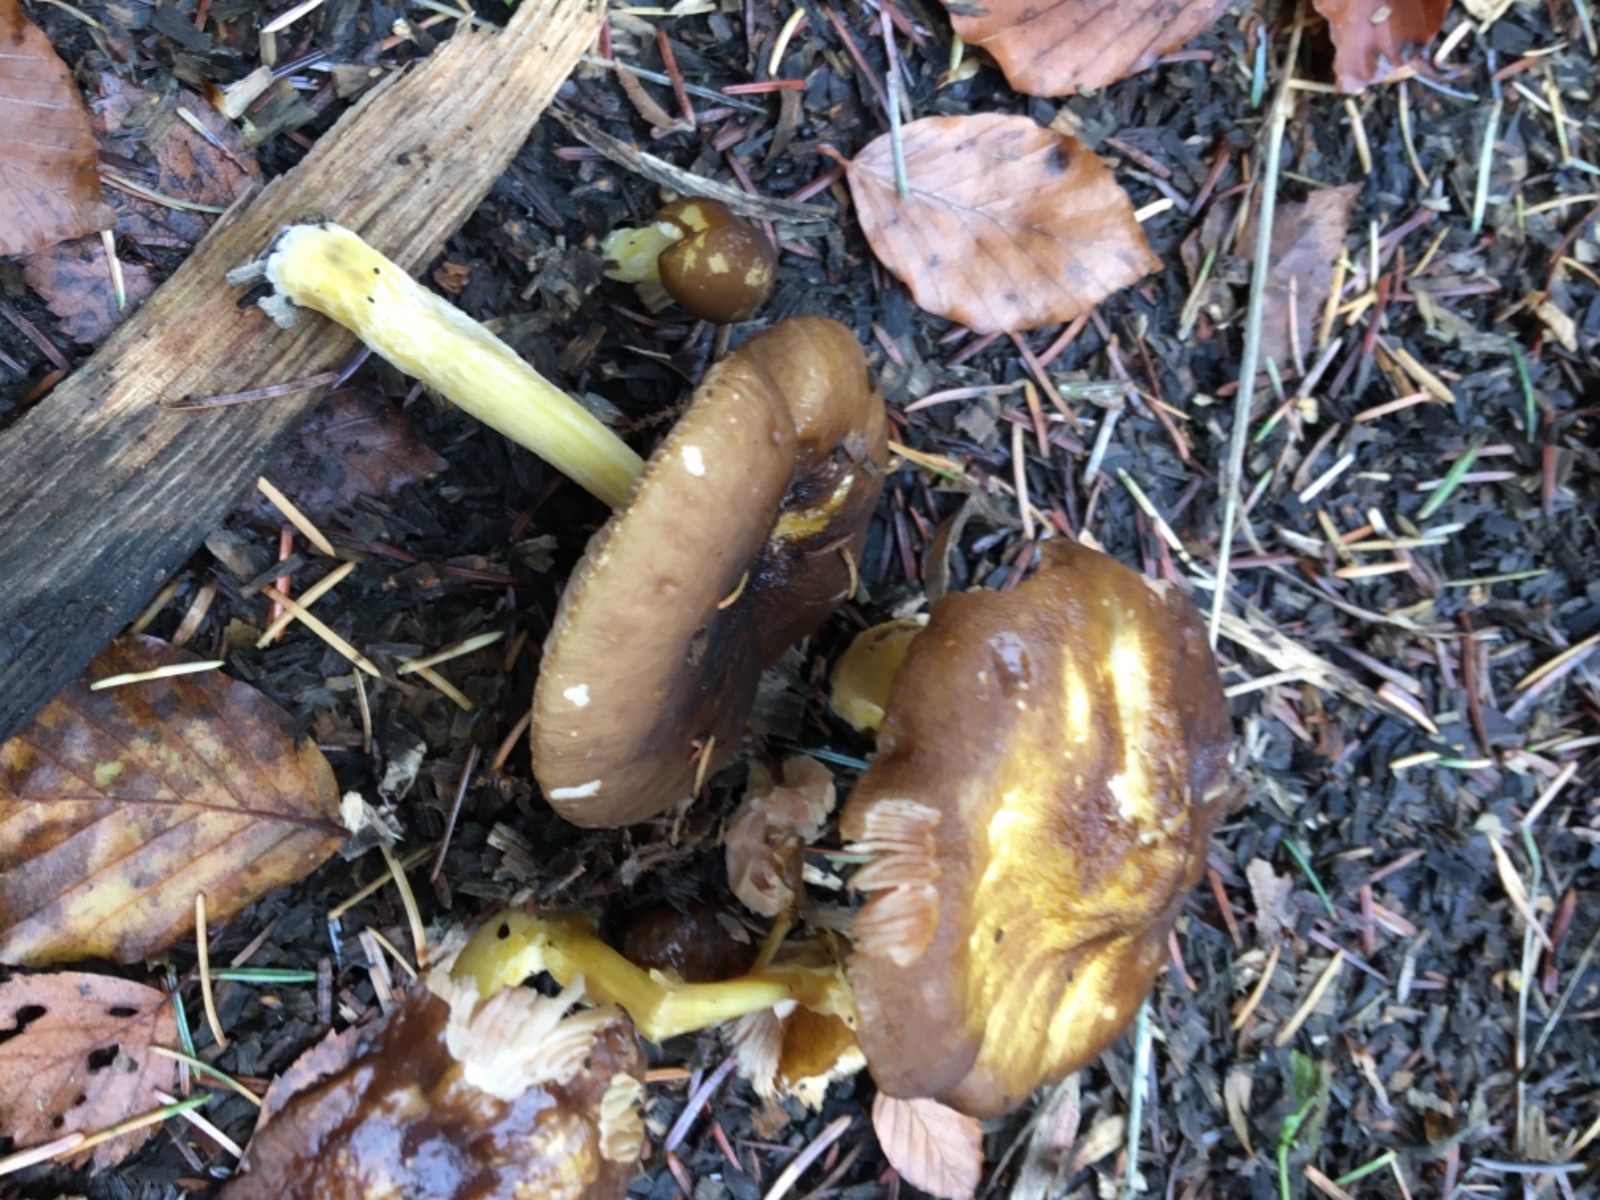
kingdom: Fungi
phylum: Basidiomycota
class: Agaricomycetes
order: Agaricales
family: Pluteaceae
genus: Pluteus
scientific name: Pluteus vellingae
